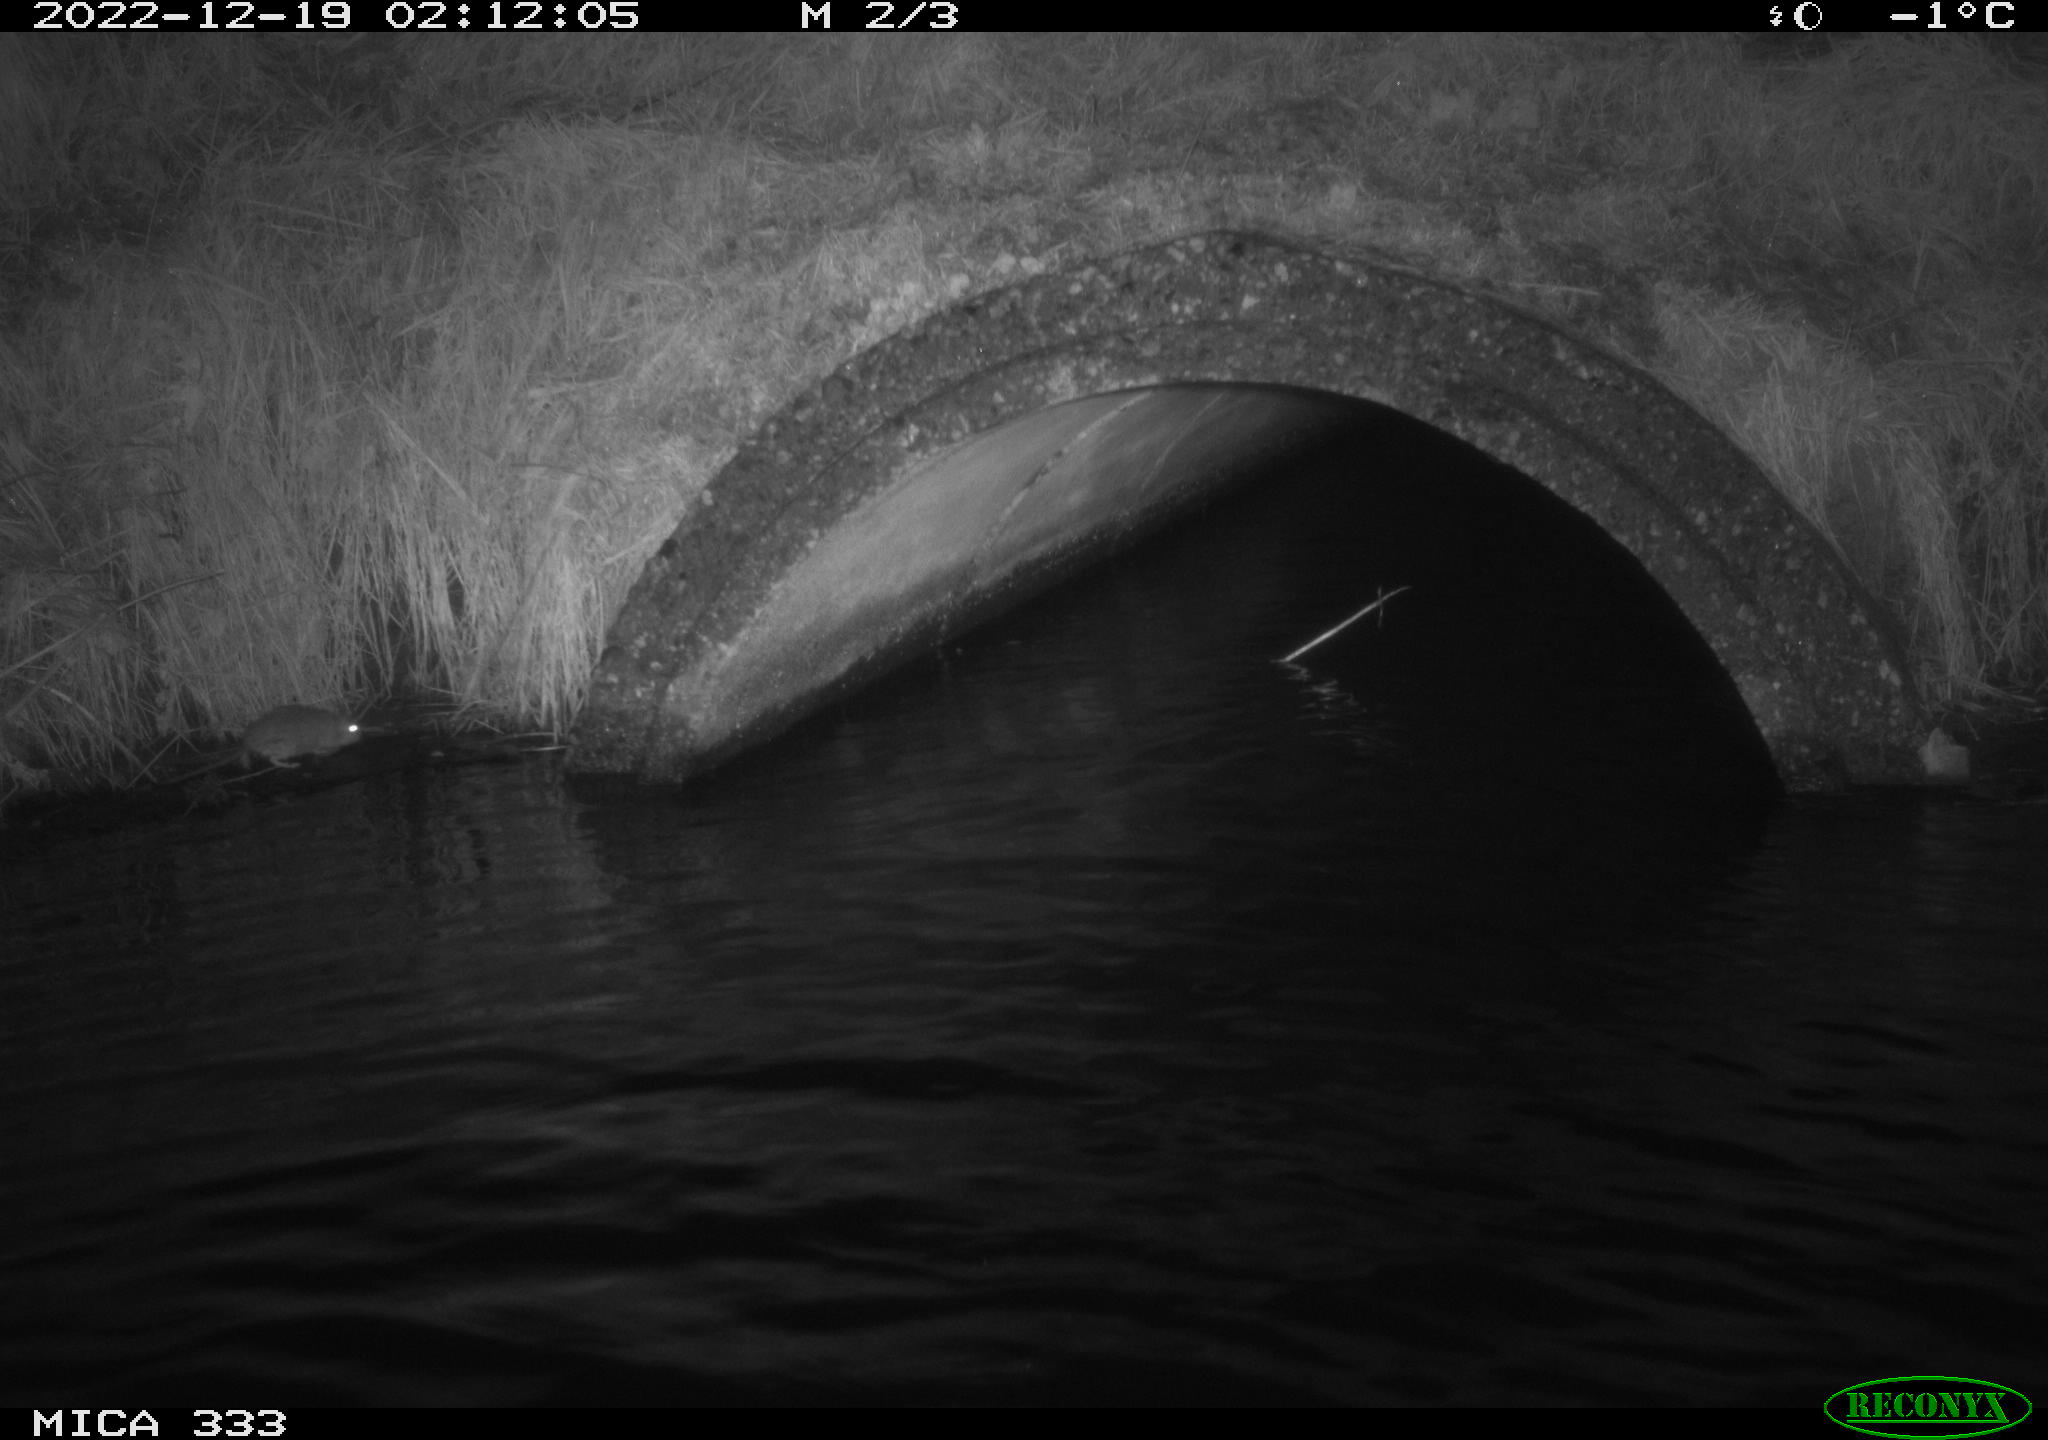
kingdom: Animalia
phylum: Chordata
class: Mammalia
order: Rodentia
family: Muridae
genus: Rattus
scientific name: Rattus norvegicus
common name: Brown rat
